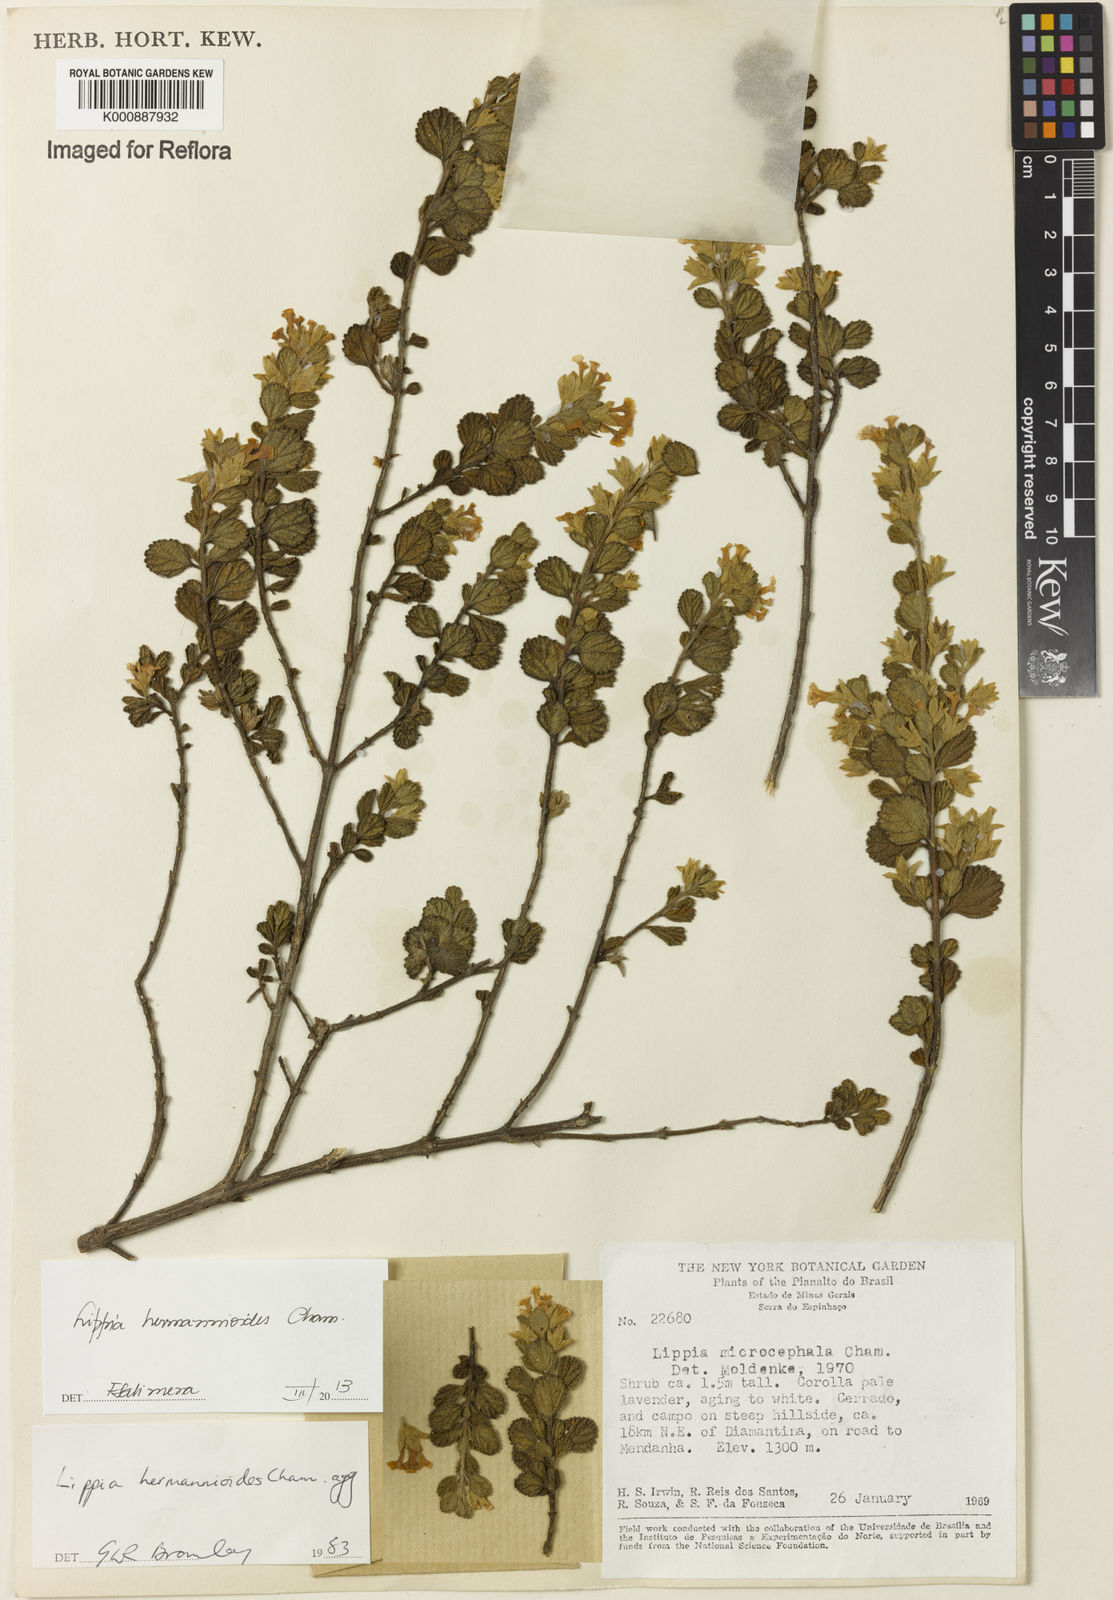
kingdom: Plantae
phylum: Tracheophyta
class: Magnoliopsida
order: Lamiales
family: Verbenaceae
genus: Lippia
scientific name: Lippia hermannioides
